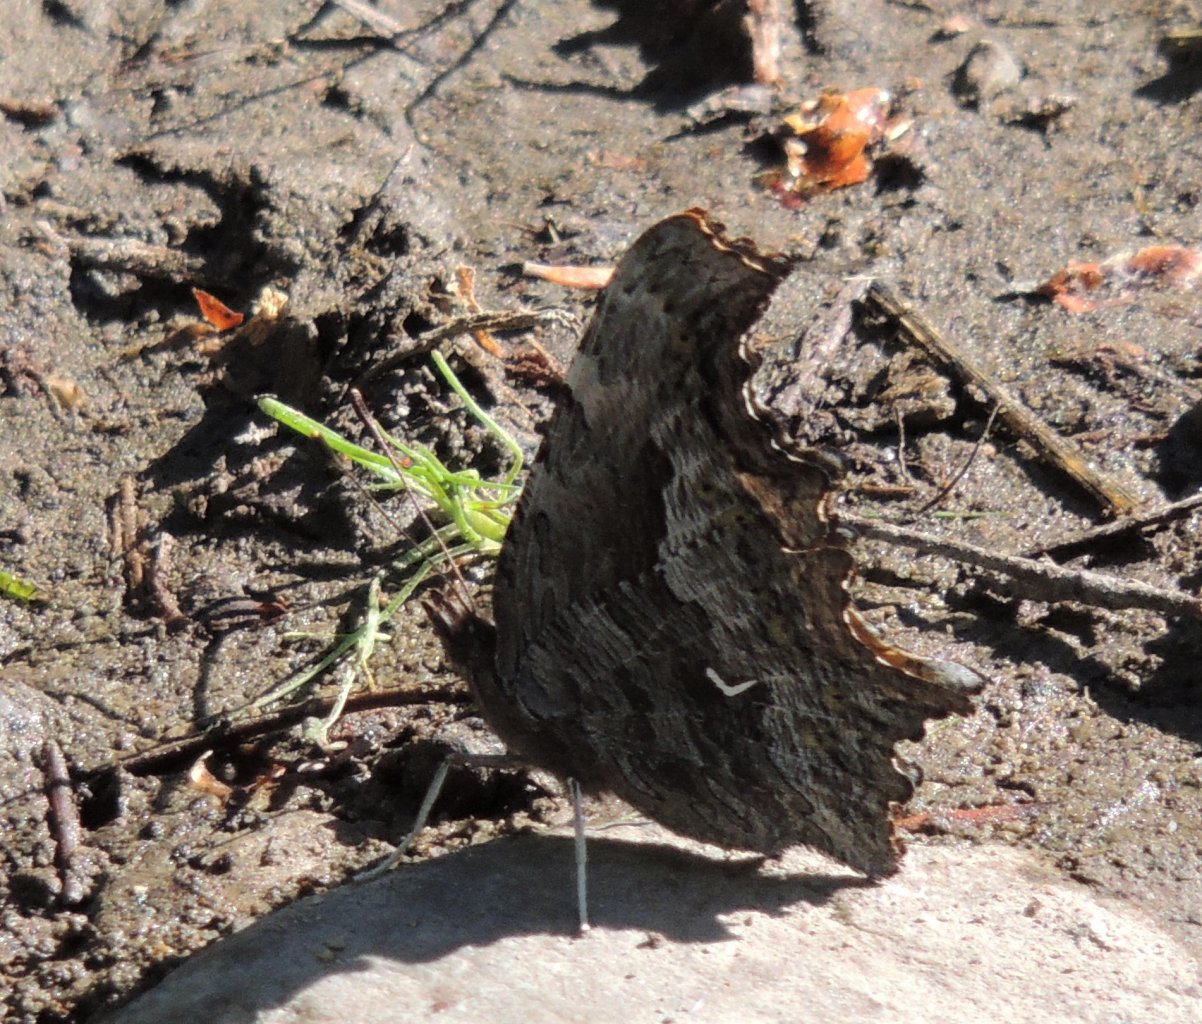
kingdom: Animalia
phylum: Arthropoda
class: Insecta
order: Lepidoptera
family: Nymphalidae
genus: Polygonia
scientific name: Polygonia gracilis
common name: Hoary Comma
